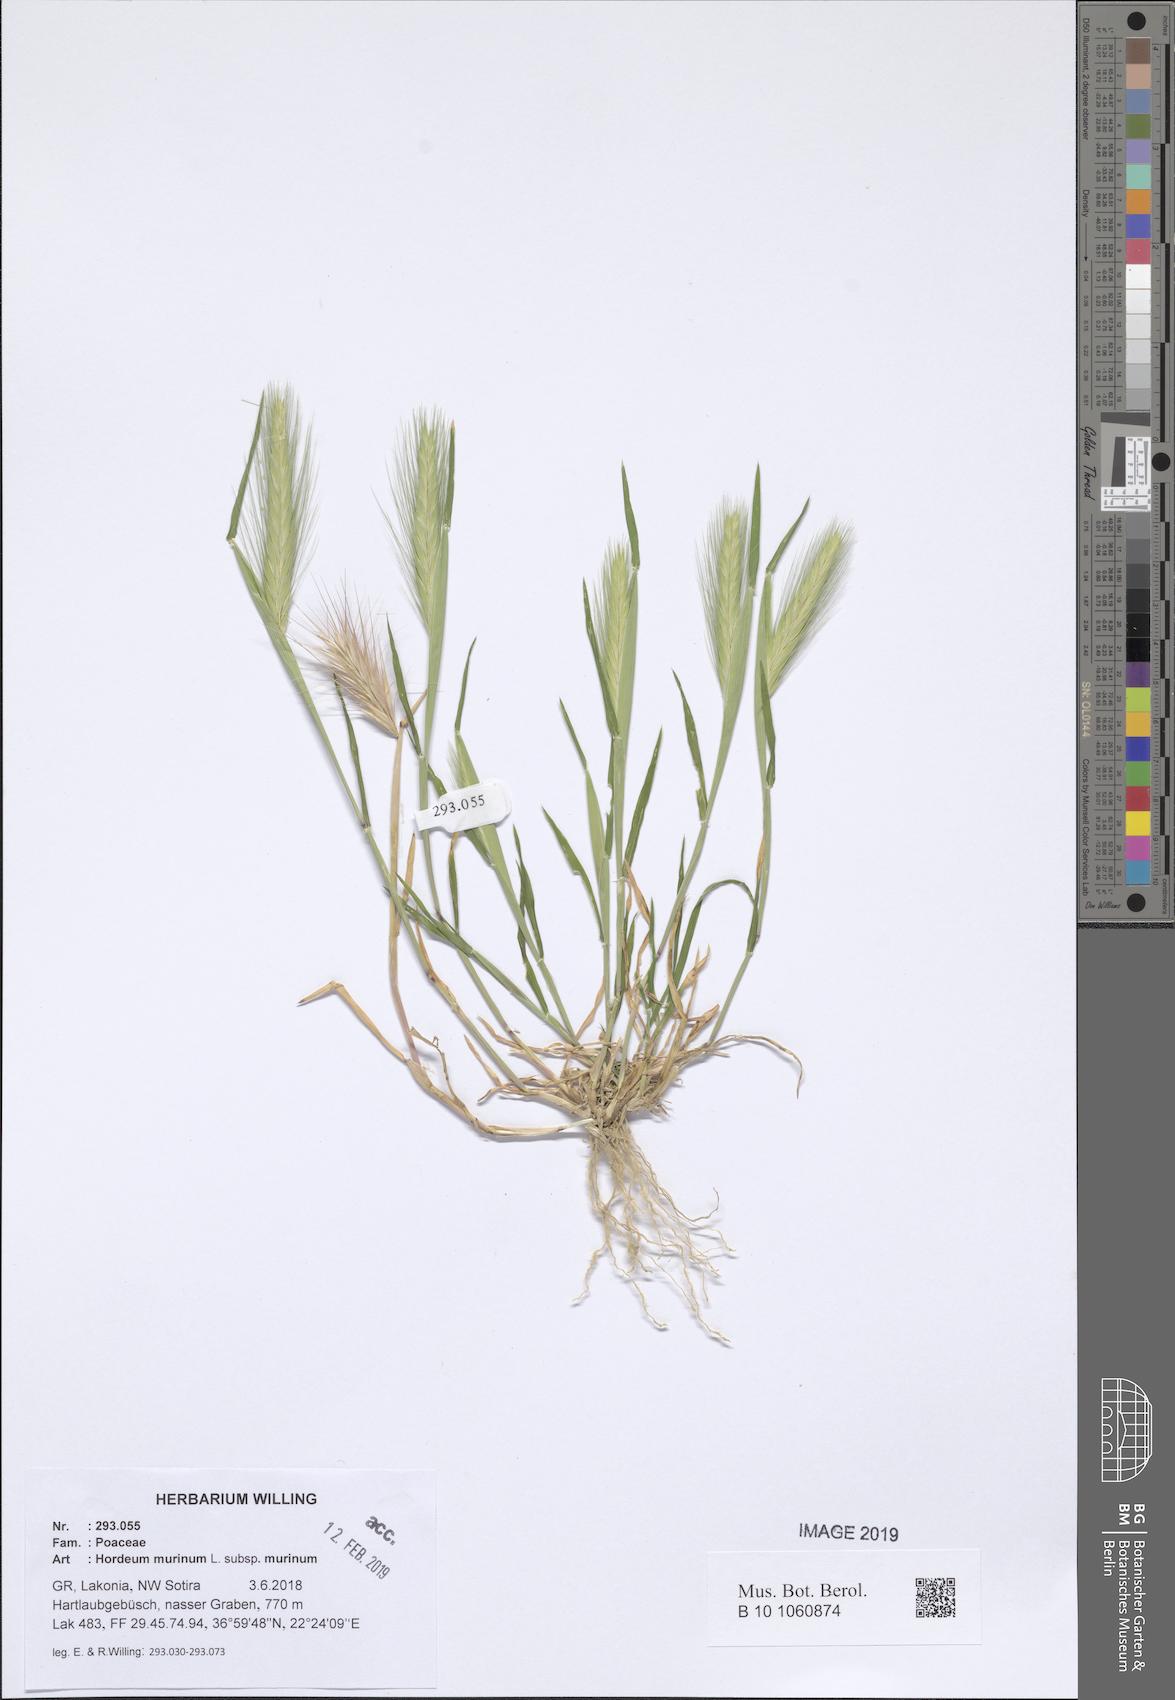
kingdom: Plantae
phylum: Tracheophyta
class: Liliopsida
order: Poales
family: Poaceae
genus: Hordeum
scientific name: Hordeum murinum
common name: Wall barley
